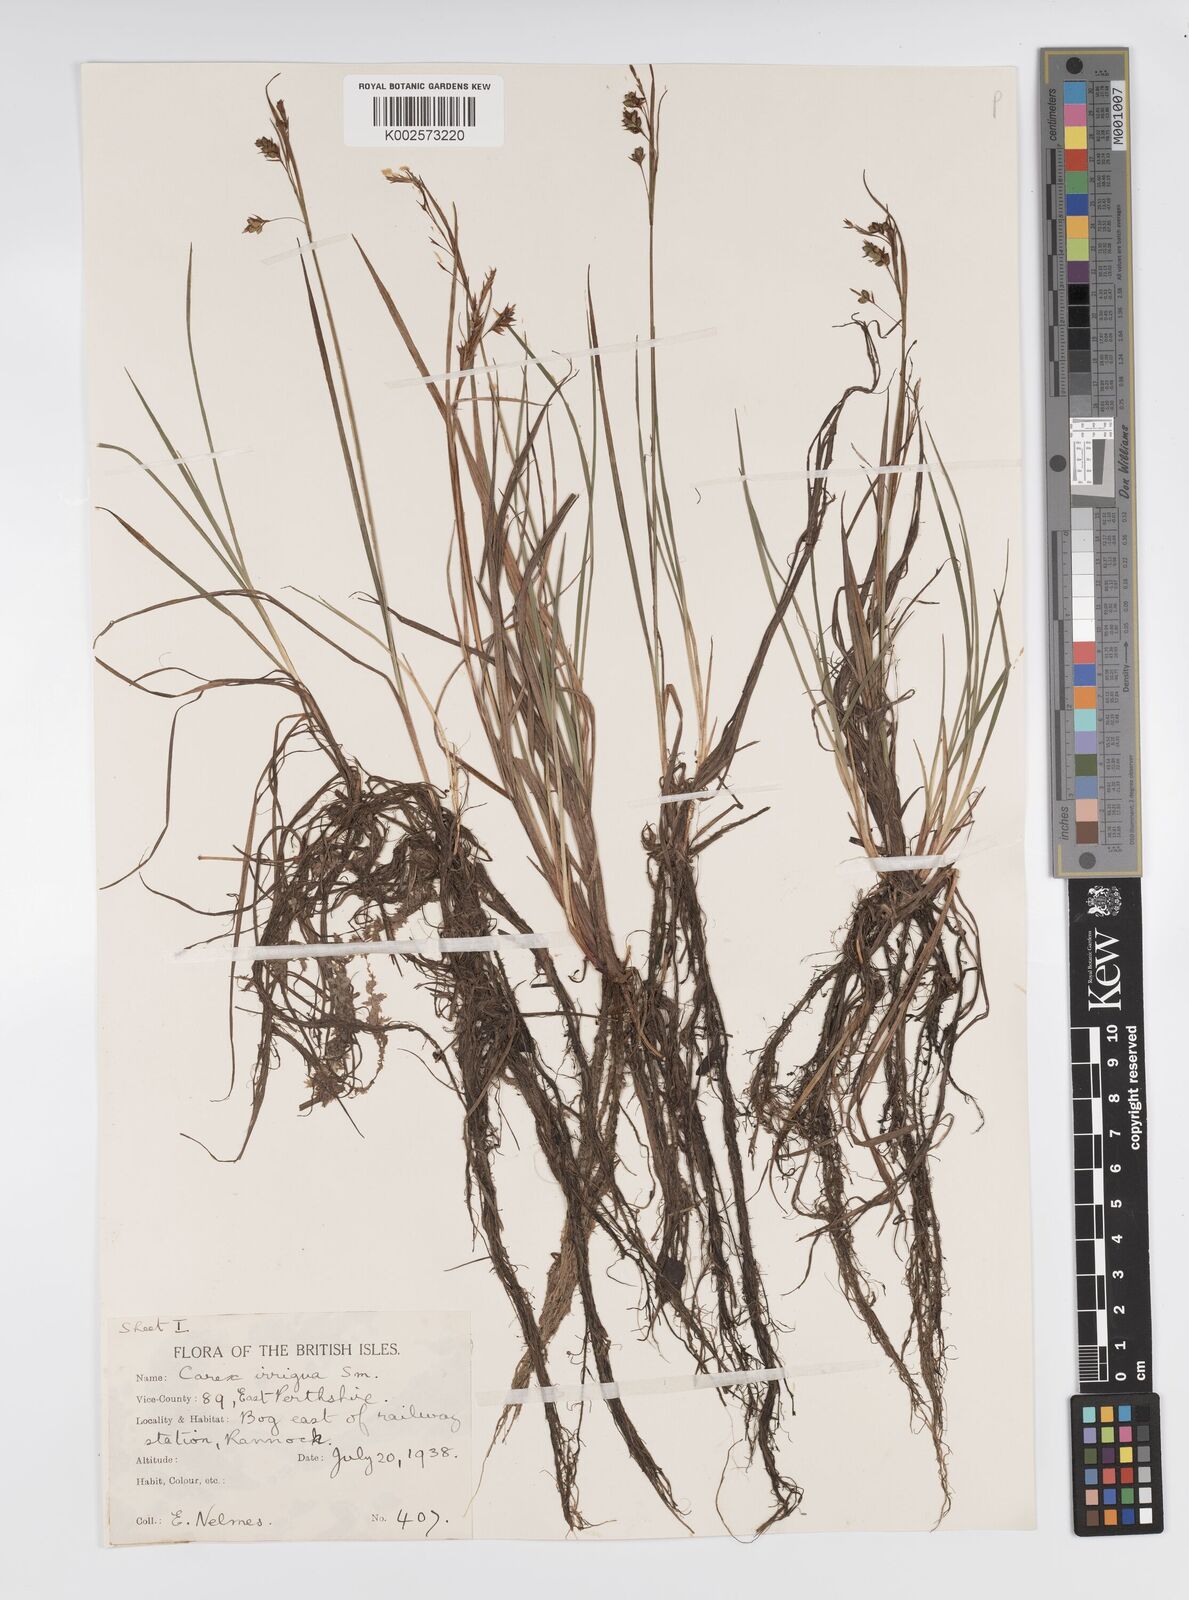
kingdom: Plantae
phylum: Tracheophyta
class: Liliopsida
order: Poales
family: Cyperaceae
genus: Carex
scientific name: Carex magellanica
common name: Bog sedge
